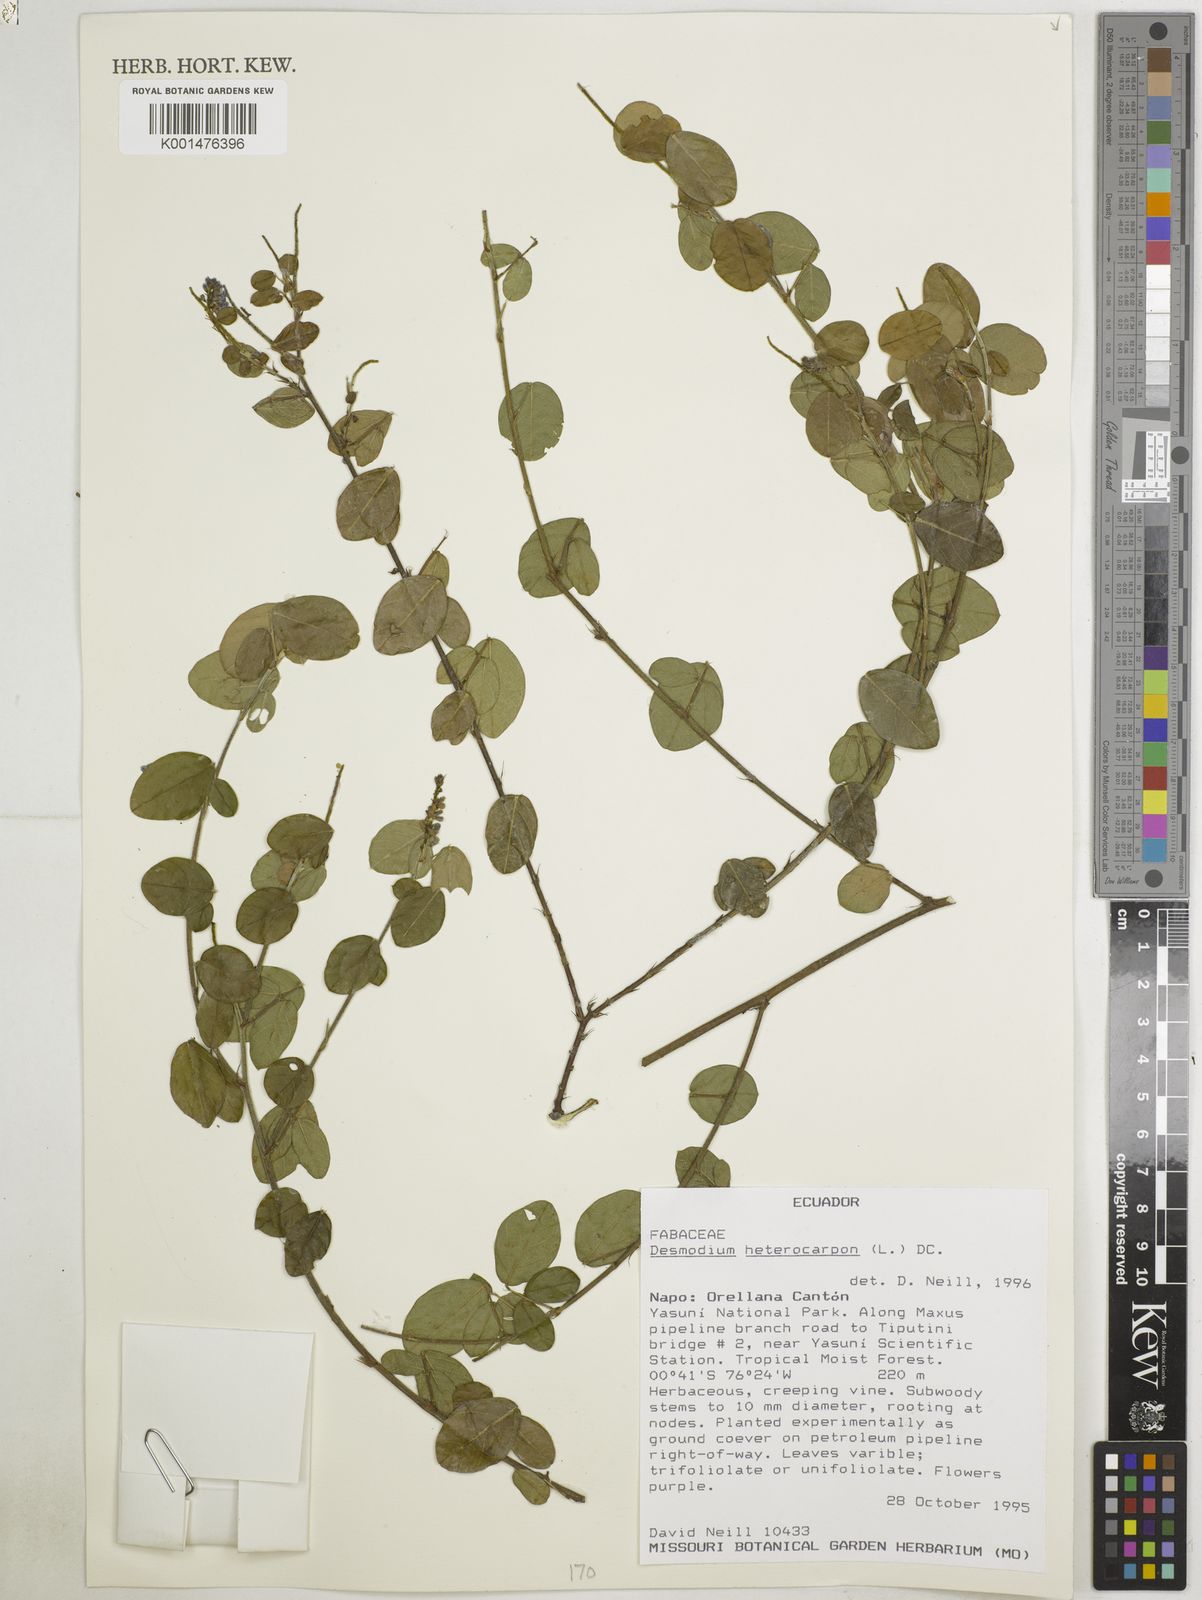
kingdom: Plantae
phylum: Tracheophyta
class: Magnoliopsida
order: Fabales
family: Fabaceae
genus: Grona
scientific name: Grona heterocarpos
